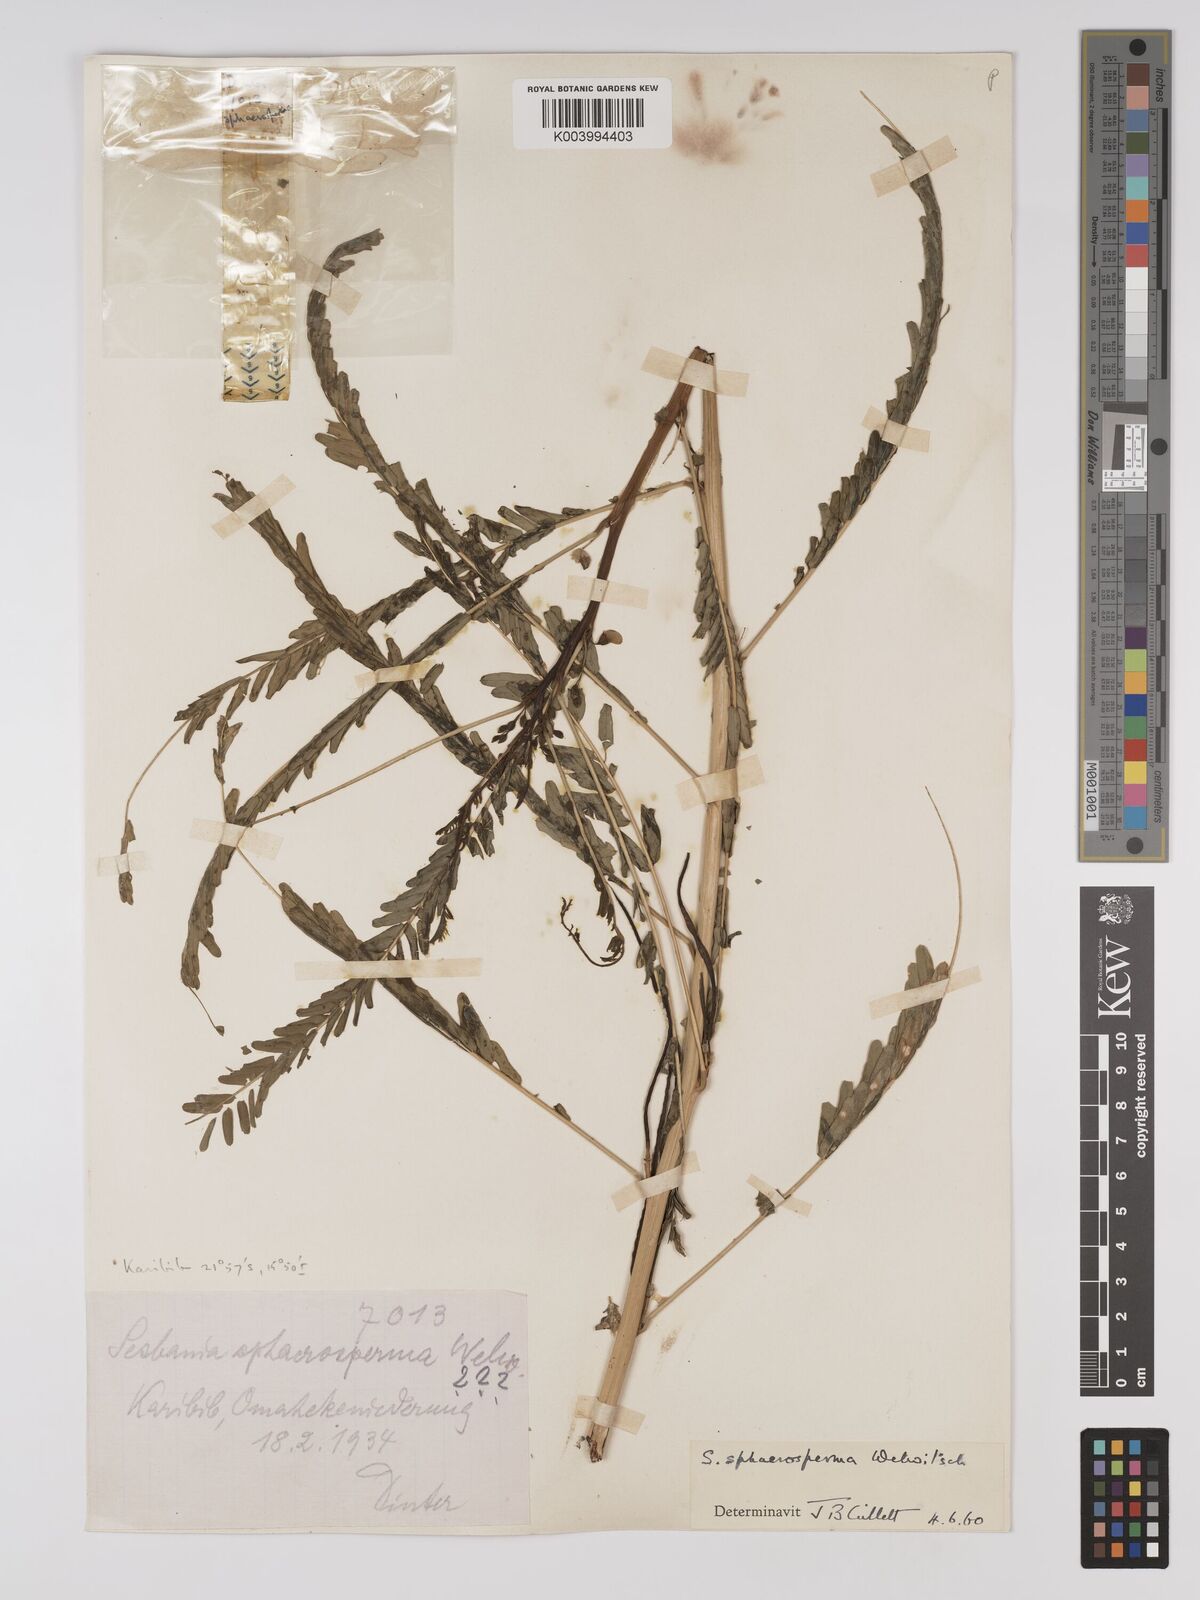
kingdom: Plantae
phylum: Tracheophyta
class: Magnoliopsida
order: Fabales
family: Fabaceae
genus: Sesbania
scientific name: Sesbania sphaerocarpa
